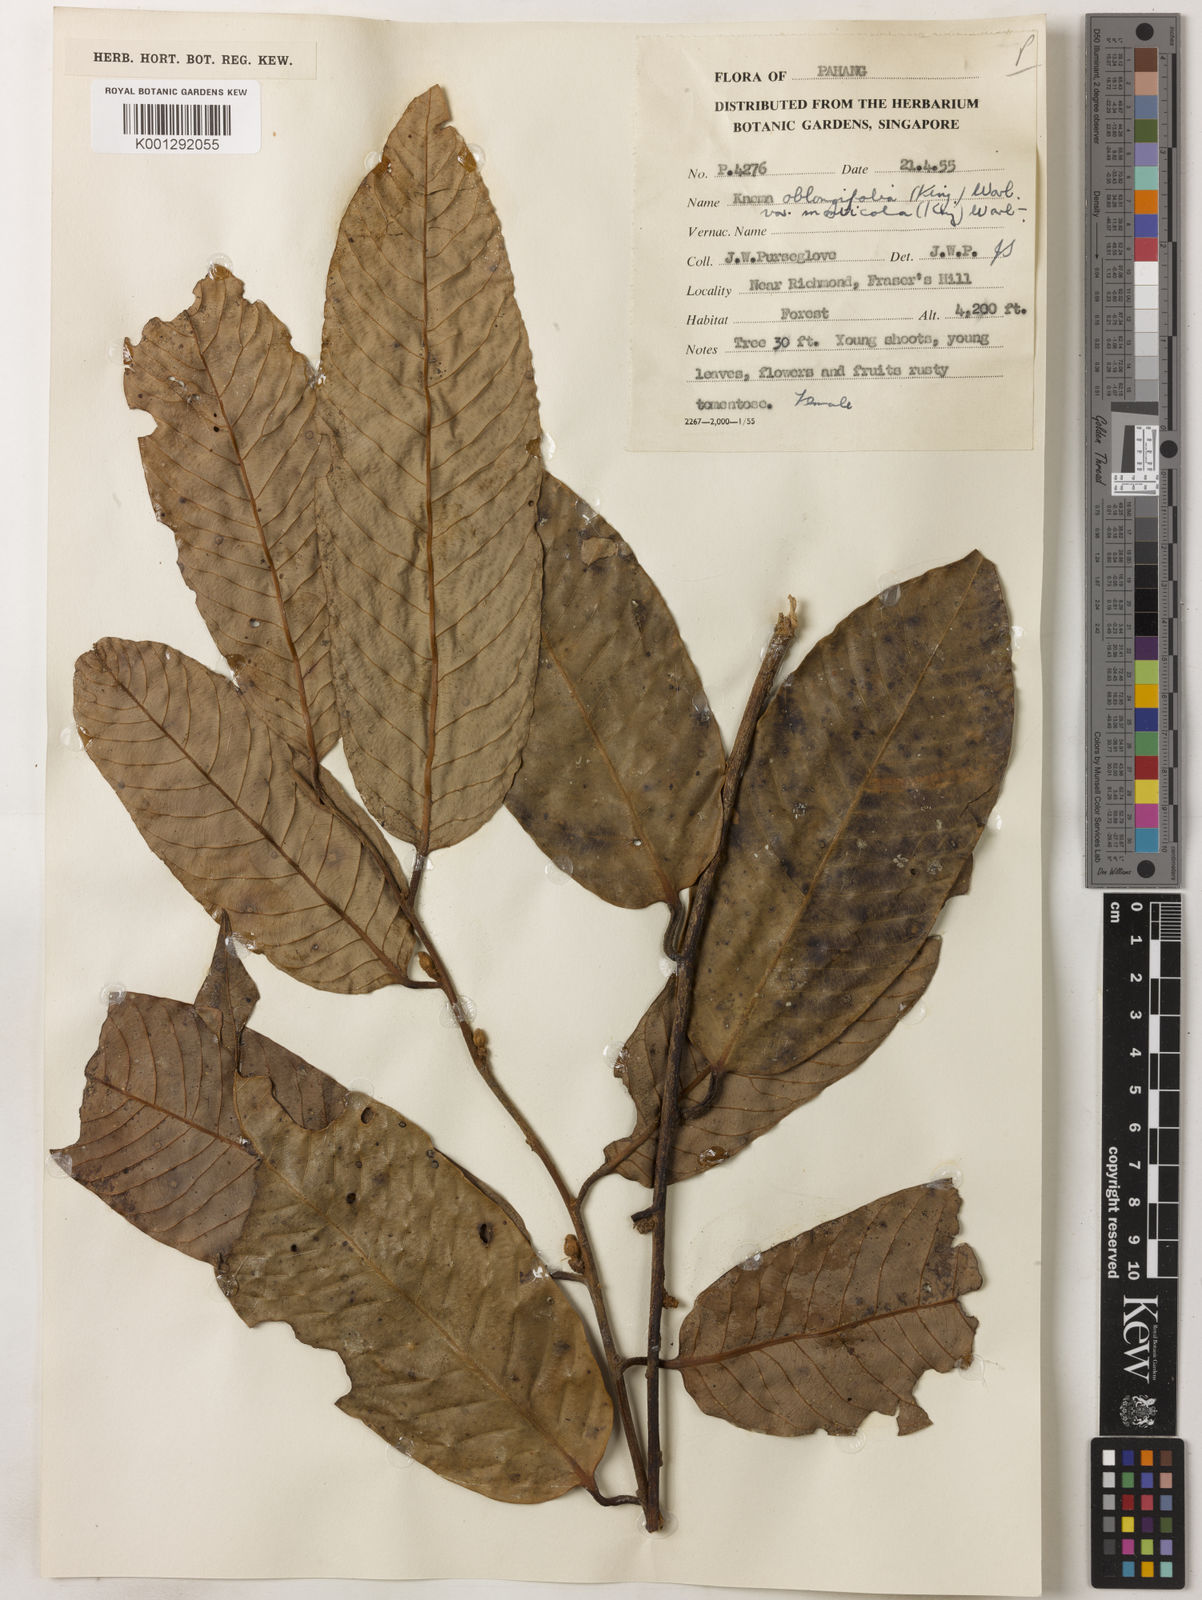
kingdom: Plantae
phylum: Tracheophyta
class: Magnoliopsida
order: Magnoliales
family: Myristicaceae
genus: Knema
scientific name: Knema
